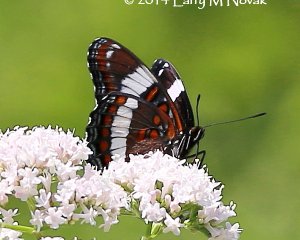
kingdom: Animalia
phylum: Arthropoda
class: Insecta
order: Lepidoptera
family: Nymphalidae
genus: Limenitis
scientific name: Limenitis arthemis
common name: Red-spotted Admiral
